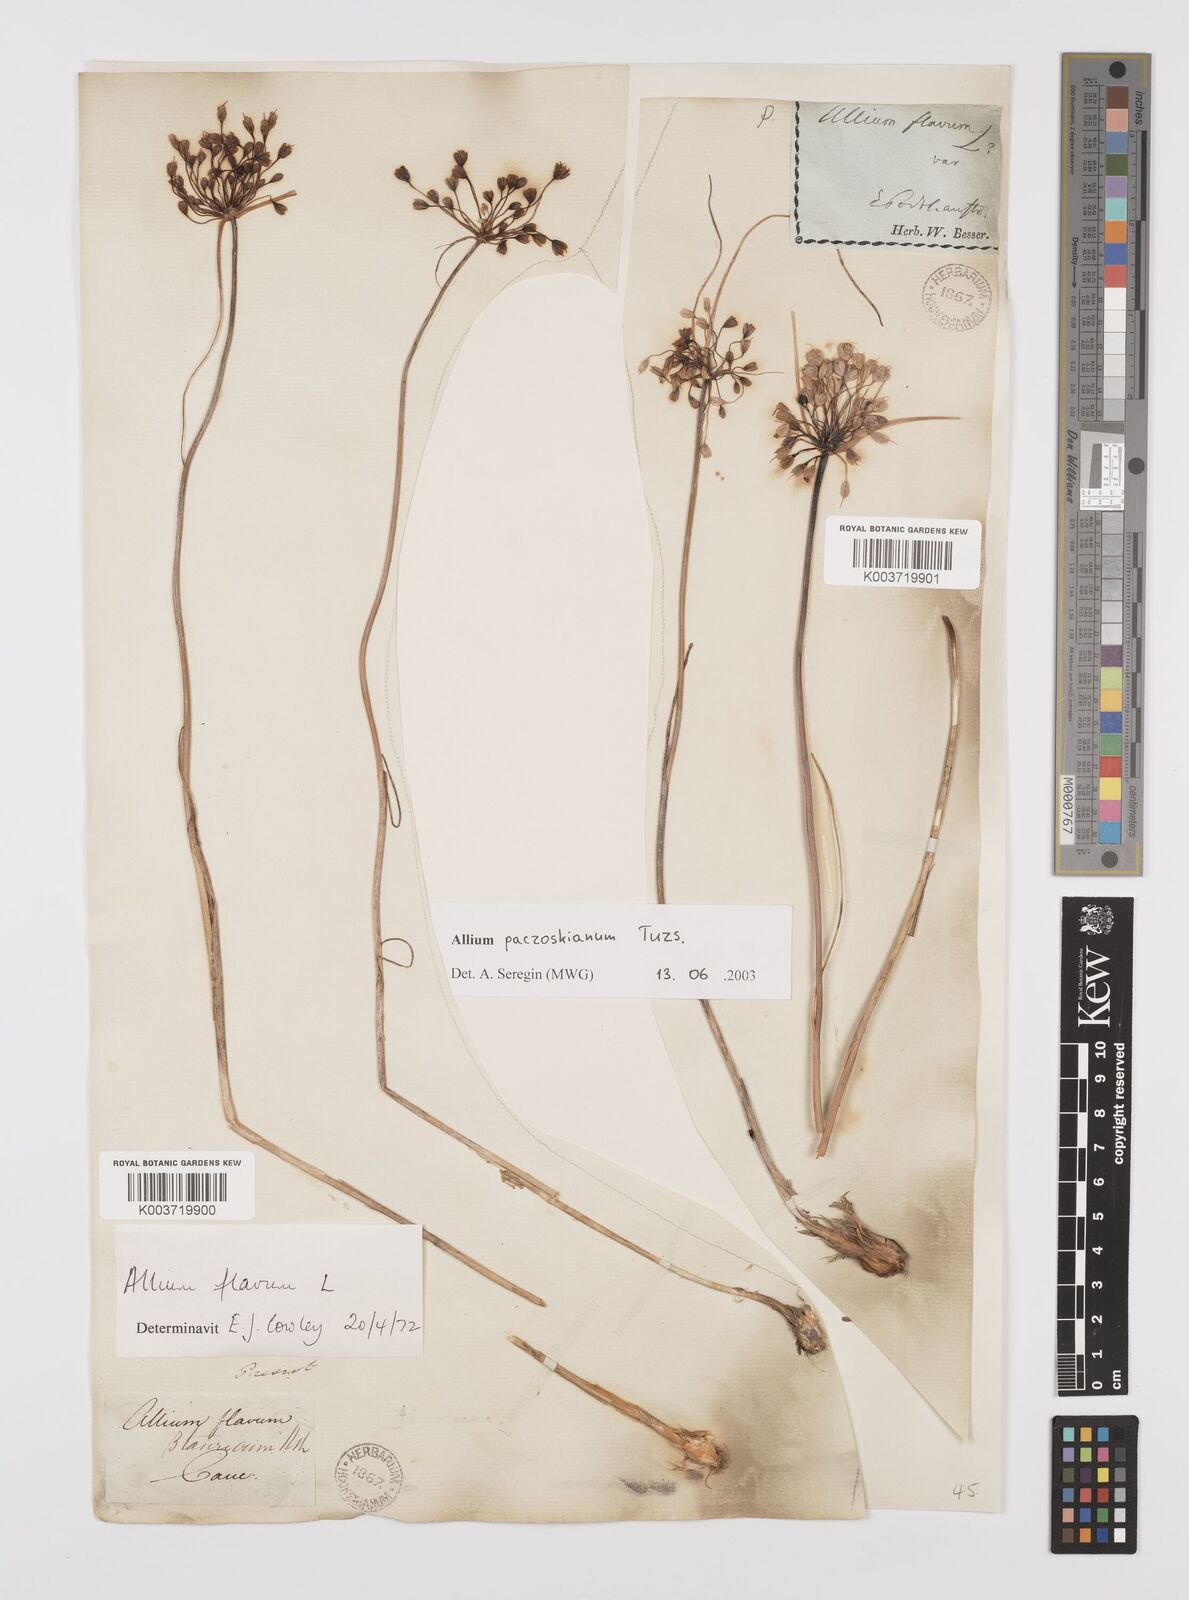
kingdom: Plantae
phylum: Tracheophyta
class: Liliopsida
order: Asparagales
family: Amaryllidaceae
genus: Allium
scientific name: Allium flavum
